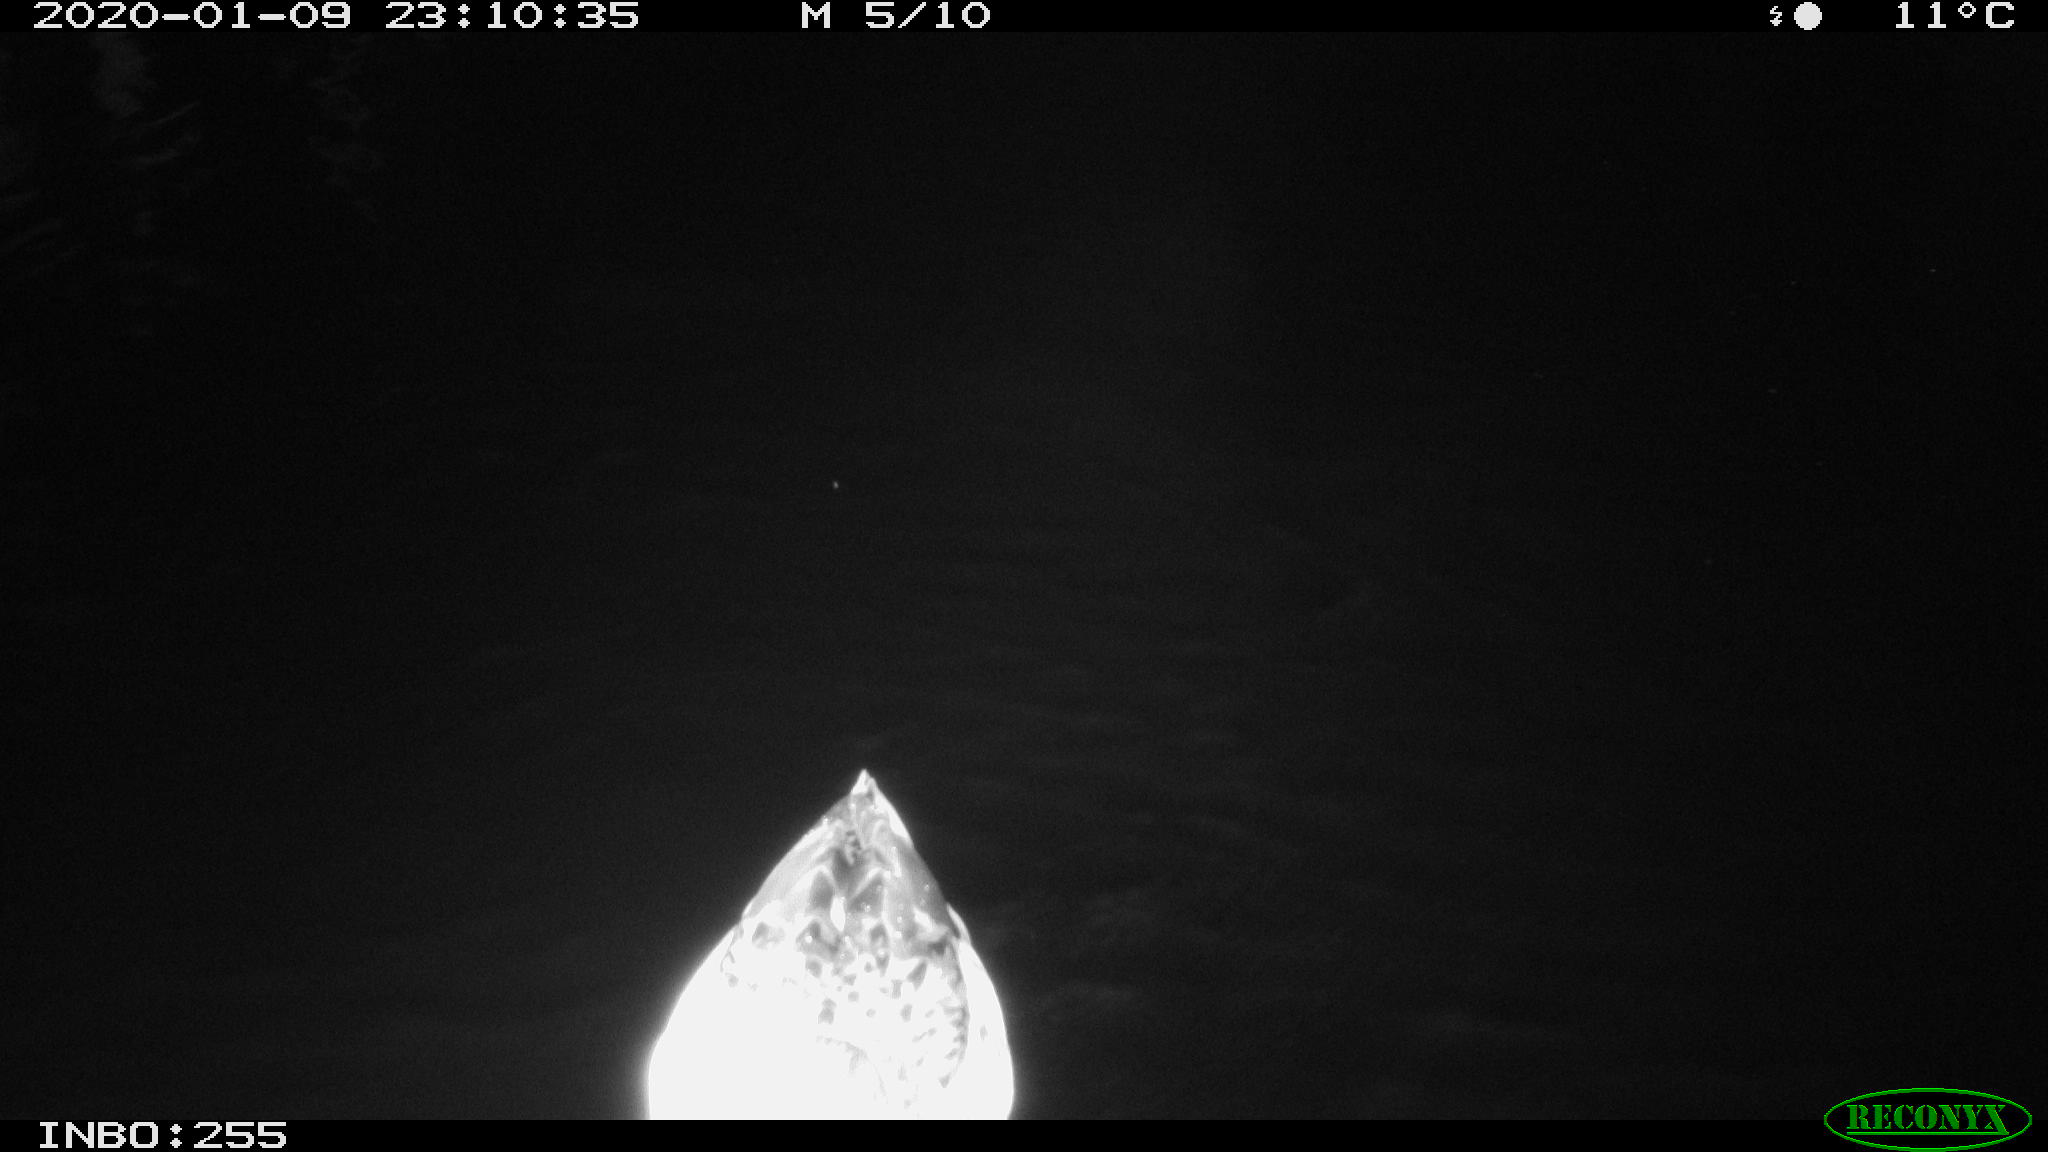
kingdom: Animalia
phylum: Chordata
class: Aves
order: Anseriformes
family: Anatidae
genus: Anas
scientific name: Anas platyrhynchos
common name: Mallard
